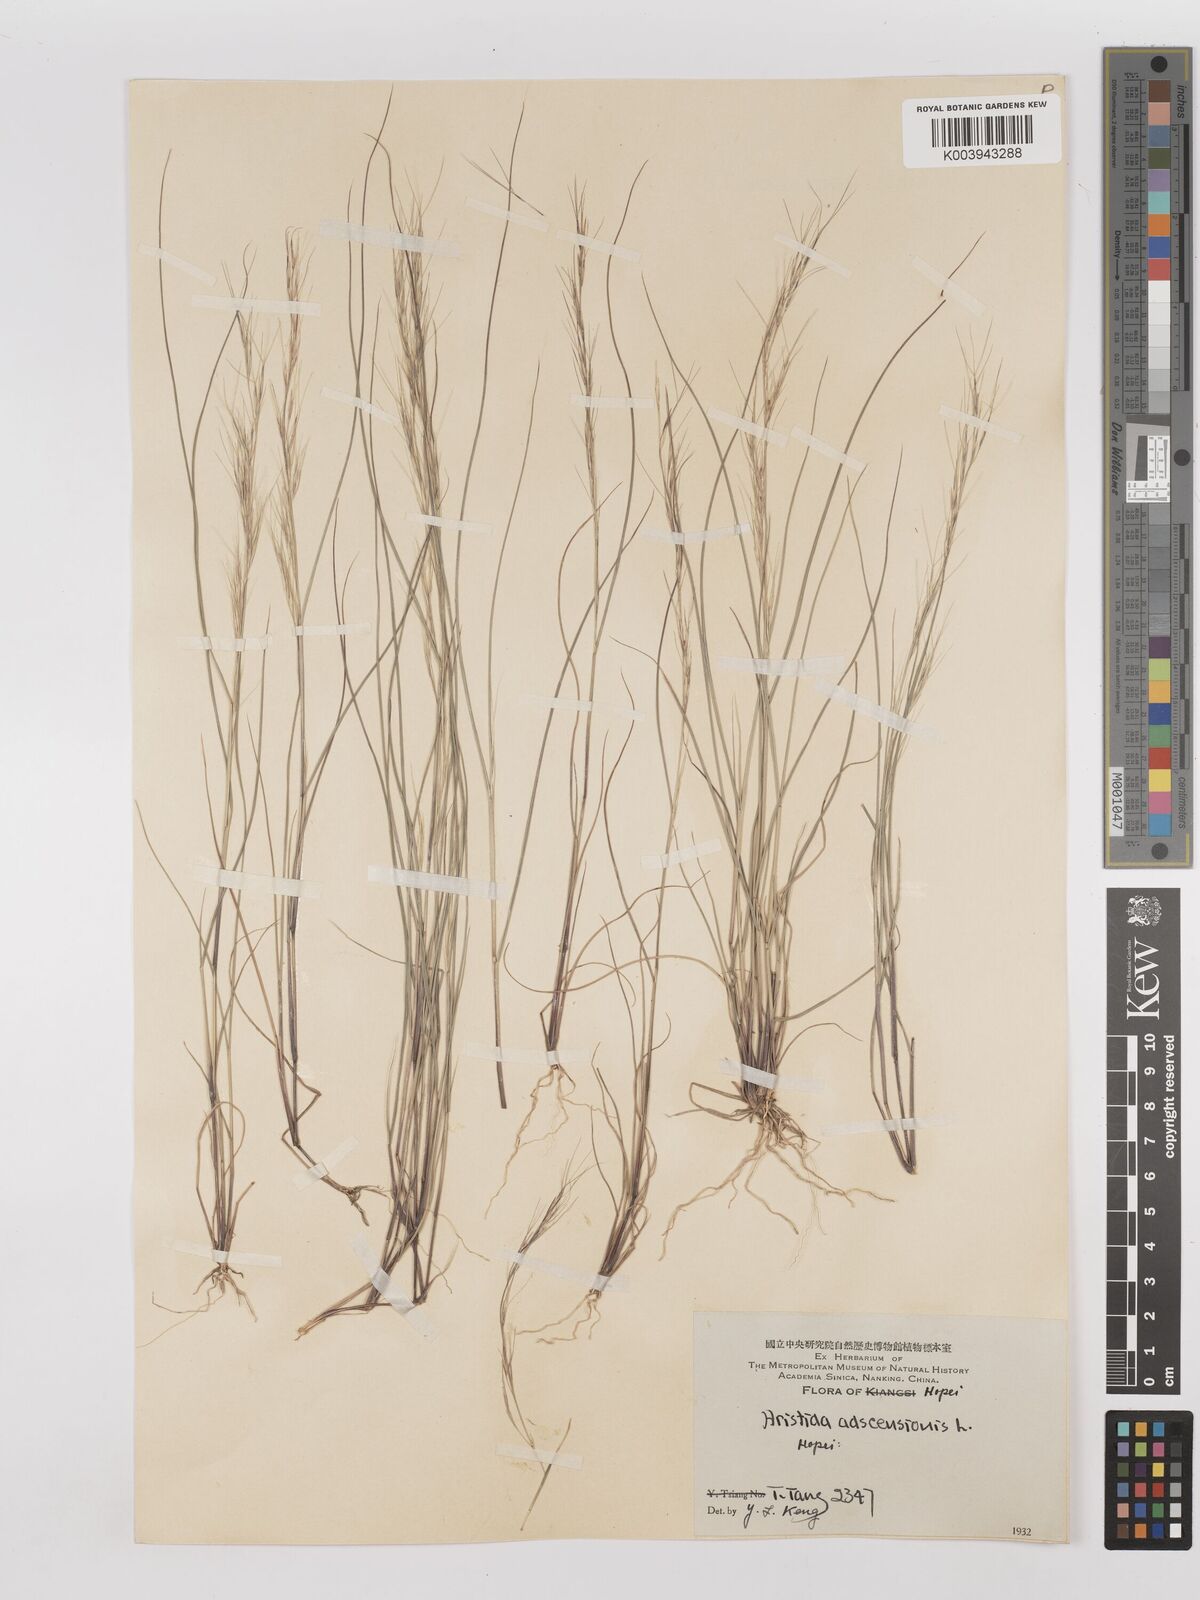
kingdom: Plantae
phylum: Tracheophyta
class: Liliopsida
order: Poales
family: Poaceae
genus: Aristida
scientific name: Aristida adscensionis
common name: Sixweeks threeawn
